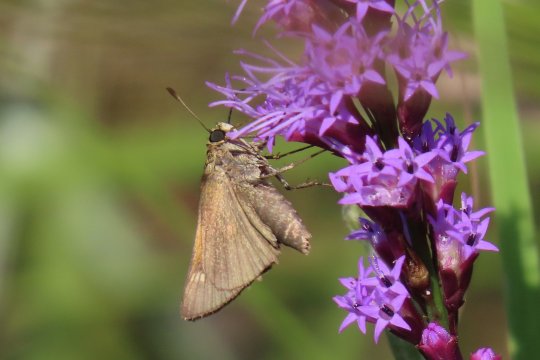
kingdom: Animalia
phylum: Arthropoda
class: Insecta
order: Lepidoptera
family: Hesperiidae
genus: Polites
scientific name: Polites themistocles
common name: Tawny-edged Skipper
